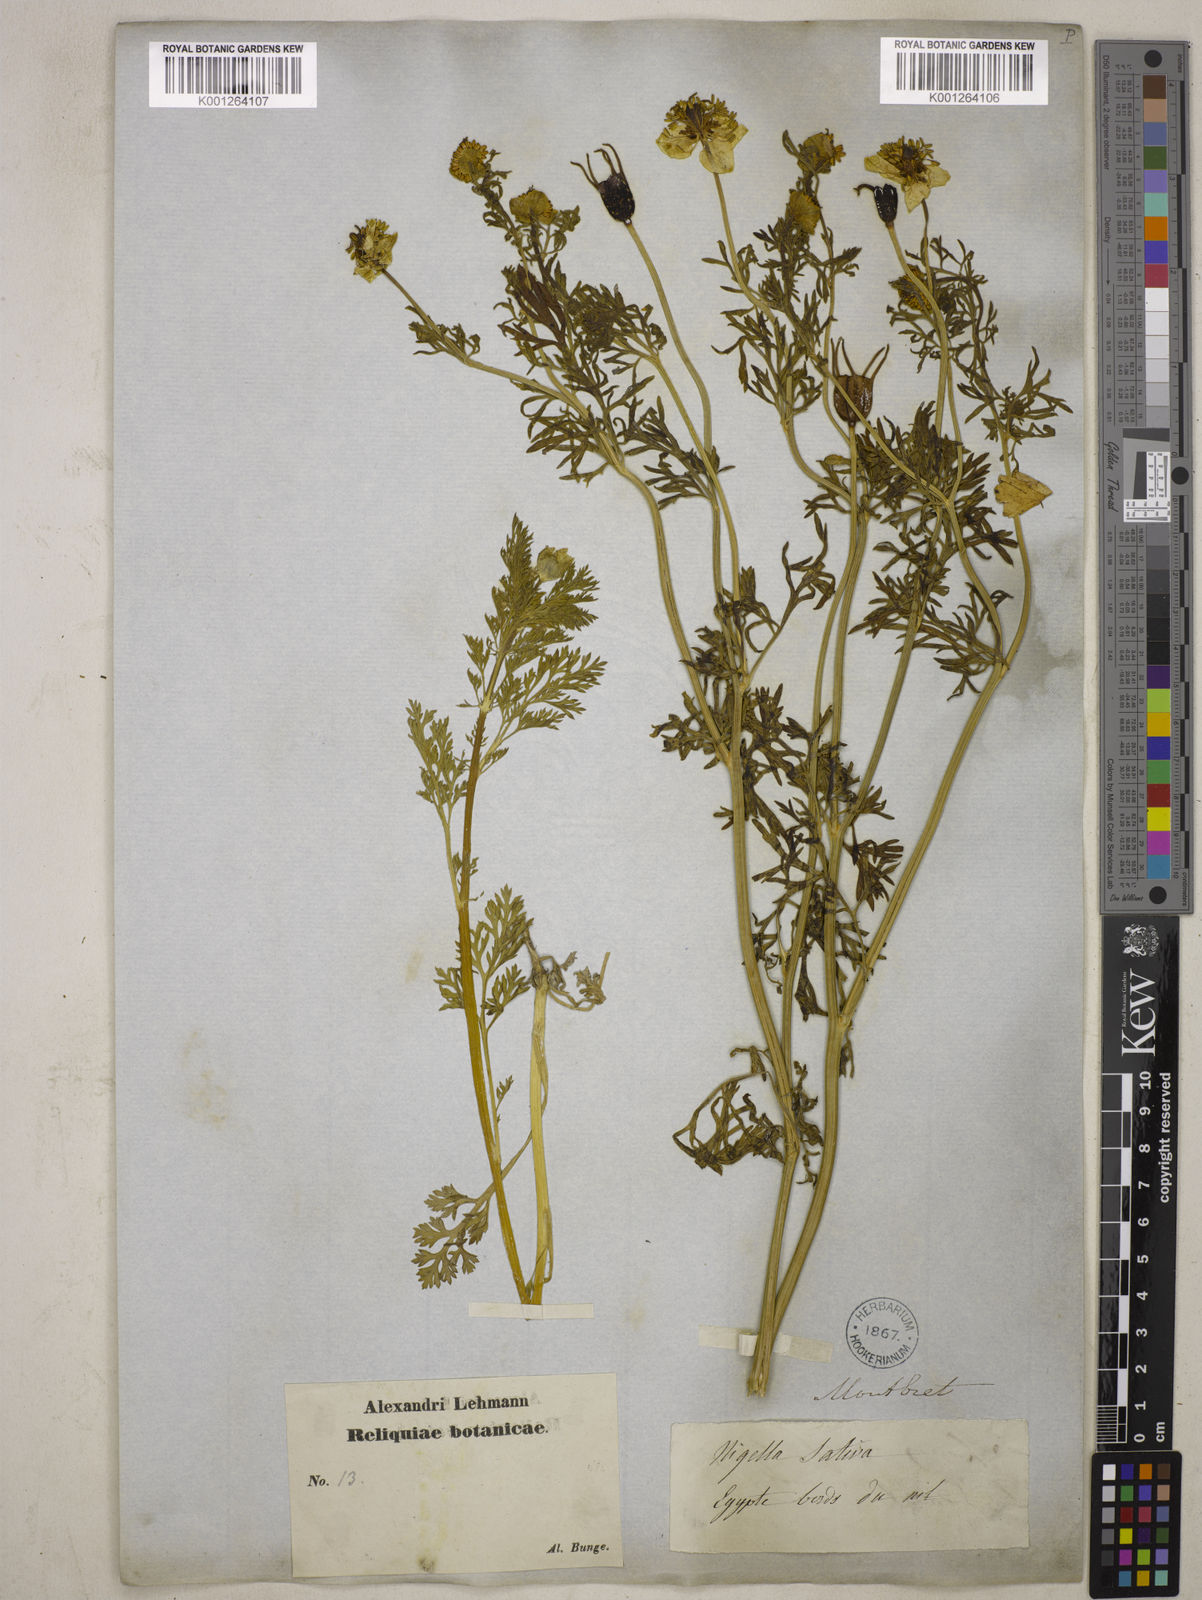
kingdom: Plantae
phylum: Tracheophyta
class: Magnoliopsida
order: Ranunculales
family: Ranunculaceae
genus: Nigella
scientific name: Nigella sativa
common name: Black-cumin
